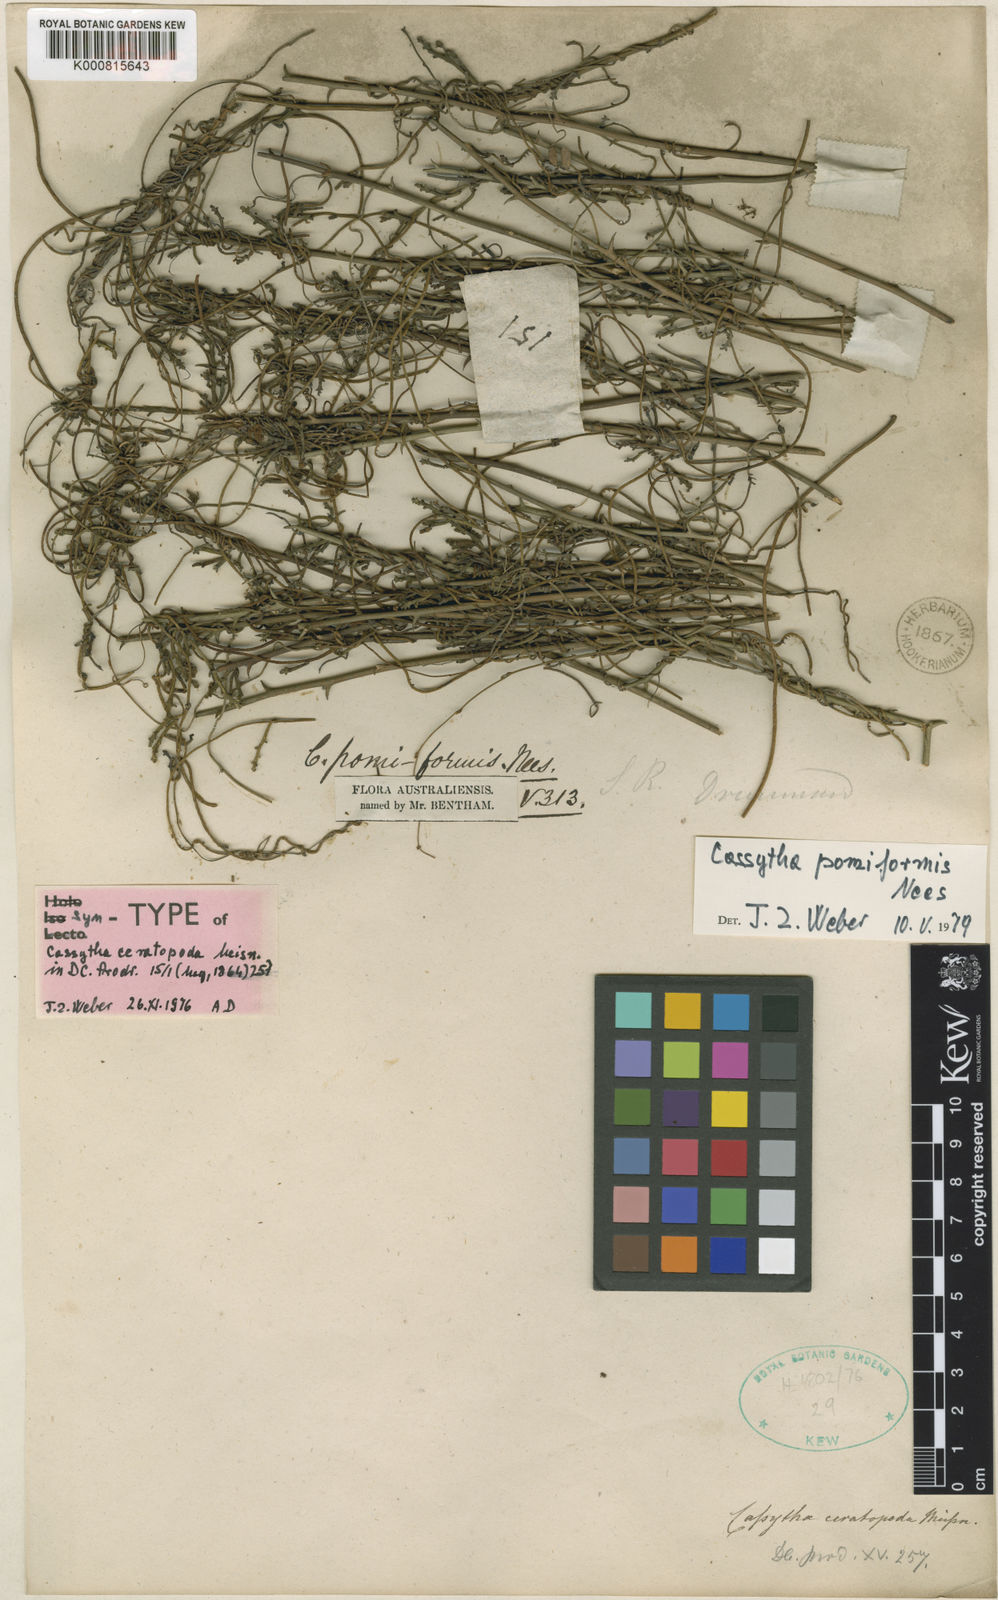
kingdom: Plantae
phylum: Tracheophyta
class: Magnoliopsida
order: Laurales
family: Lauraceae
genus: Cassytha
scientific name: Cassytha pomiformis
